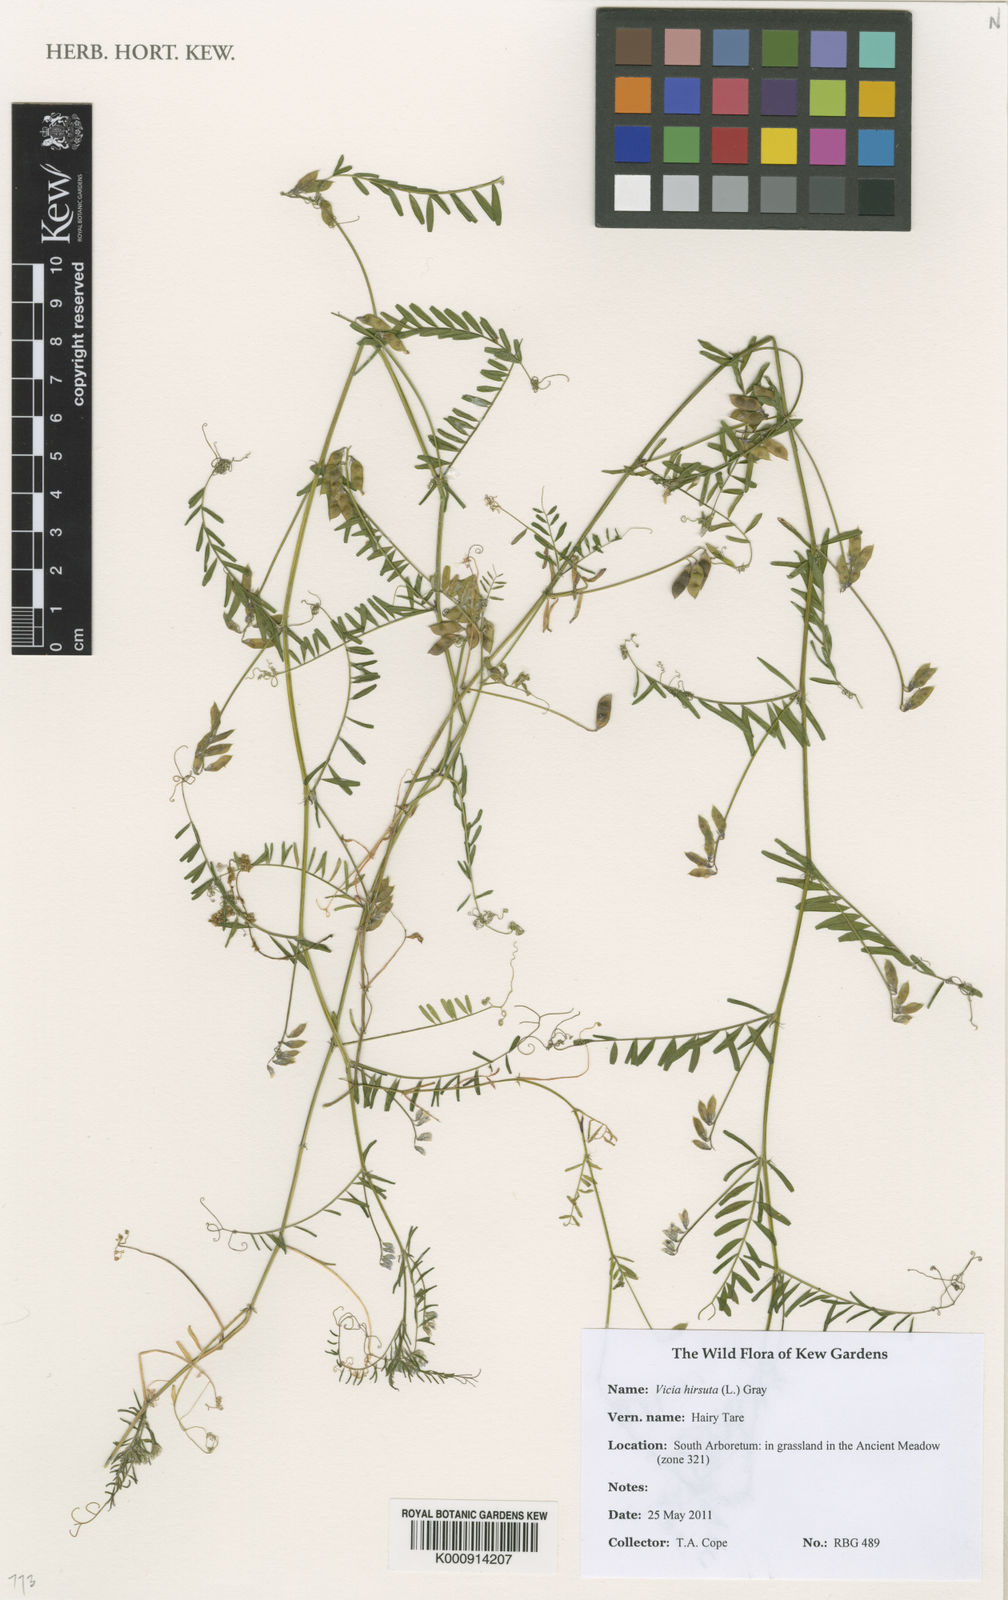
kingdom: Plantae
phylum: Tracheophyta
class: Magnoliopsida
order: Fabales
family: Fabaceae
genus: Vicia
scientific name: Vicia hirsuta
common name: Tiny vetch
